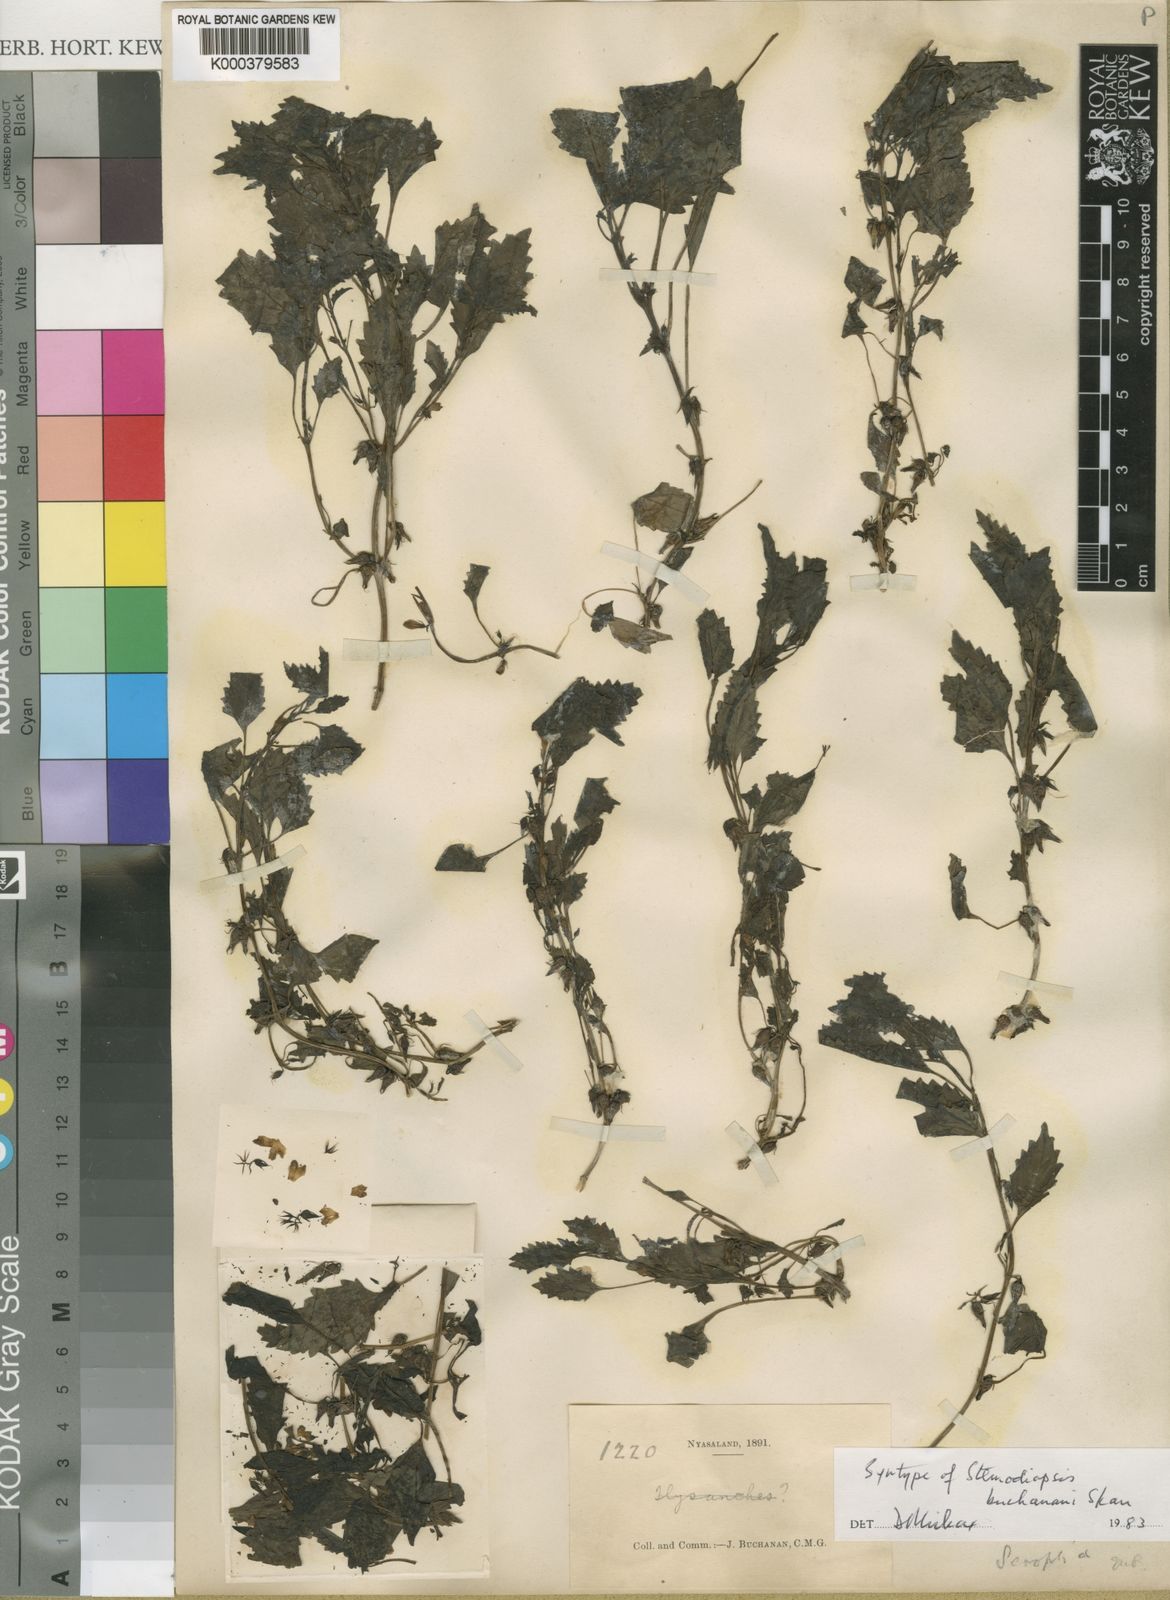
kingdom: Plantae
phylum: Tracheophyta
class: Magnoliopsida
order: Lamiales
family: Linderniaceae
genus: Stemodiopsis
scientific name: Stemodiopsis buchananii
